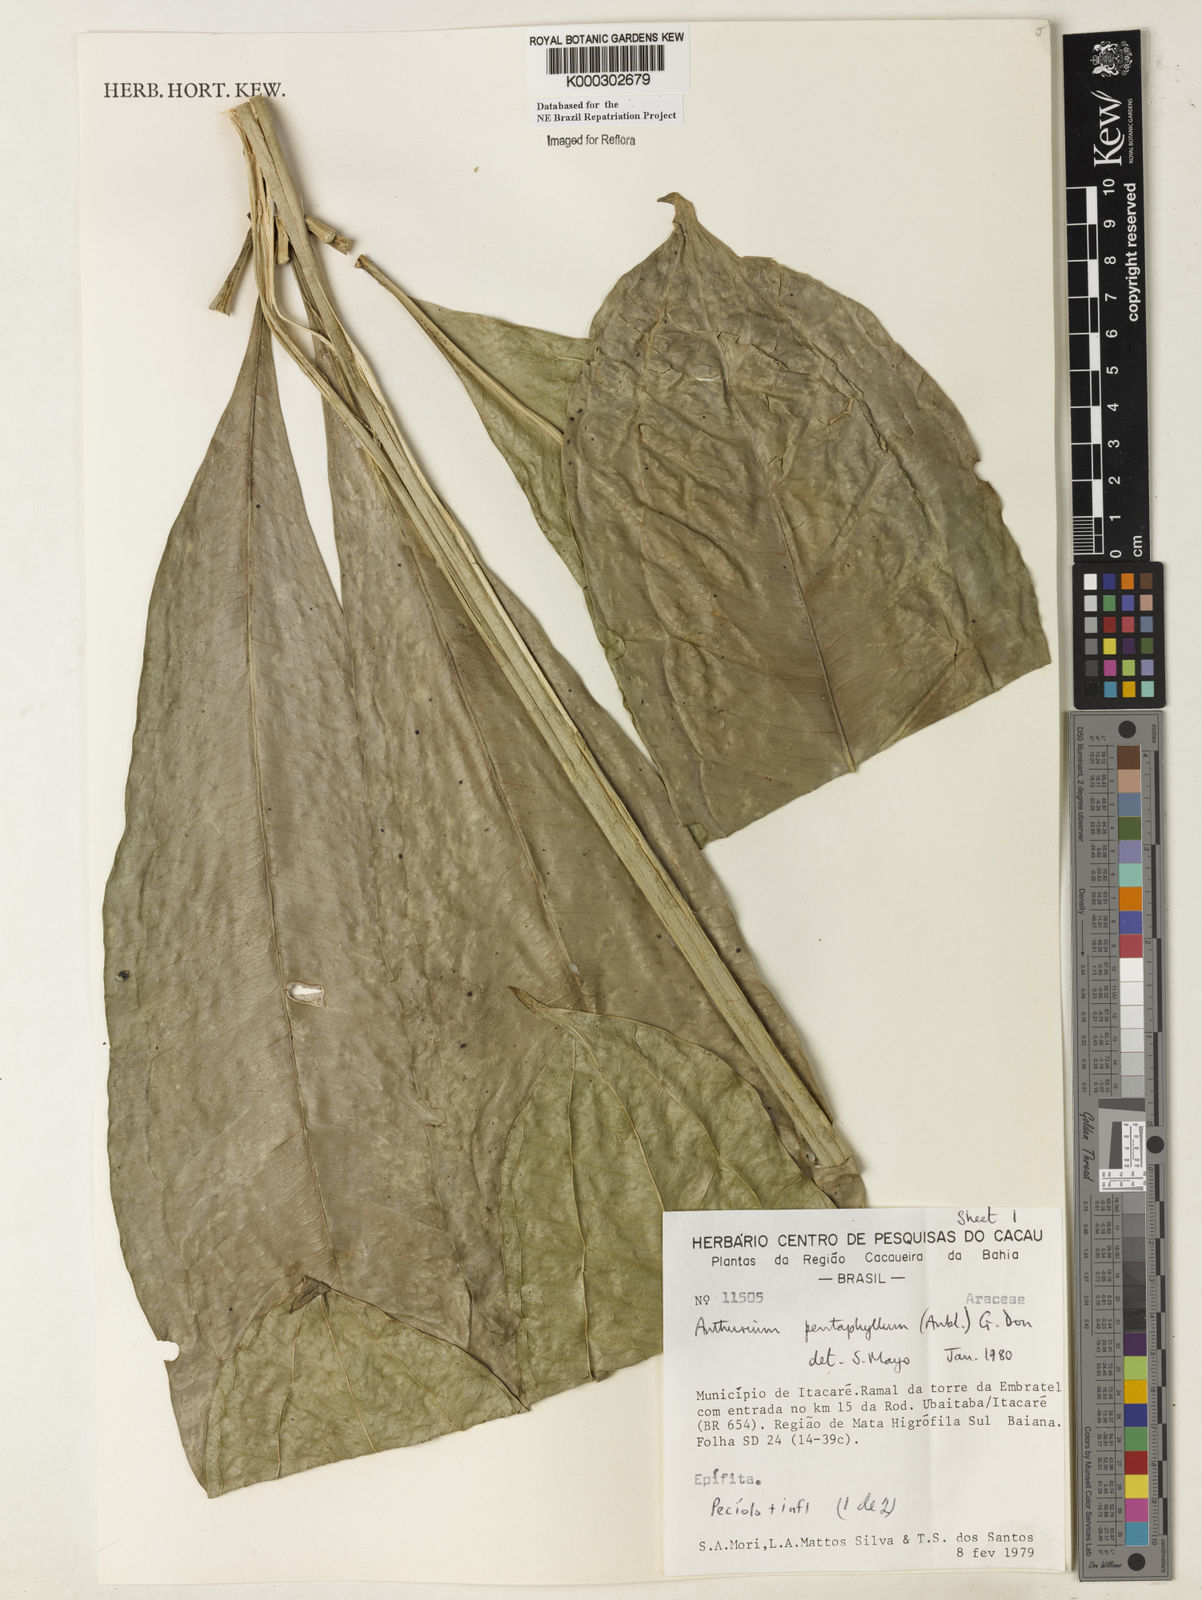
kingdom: Plantae
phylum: Tracheophyta
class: Liliopsida
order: Alismatales
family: Araceae
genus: Anthurium
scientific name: Anthurium pentaphyllum
